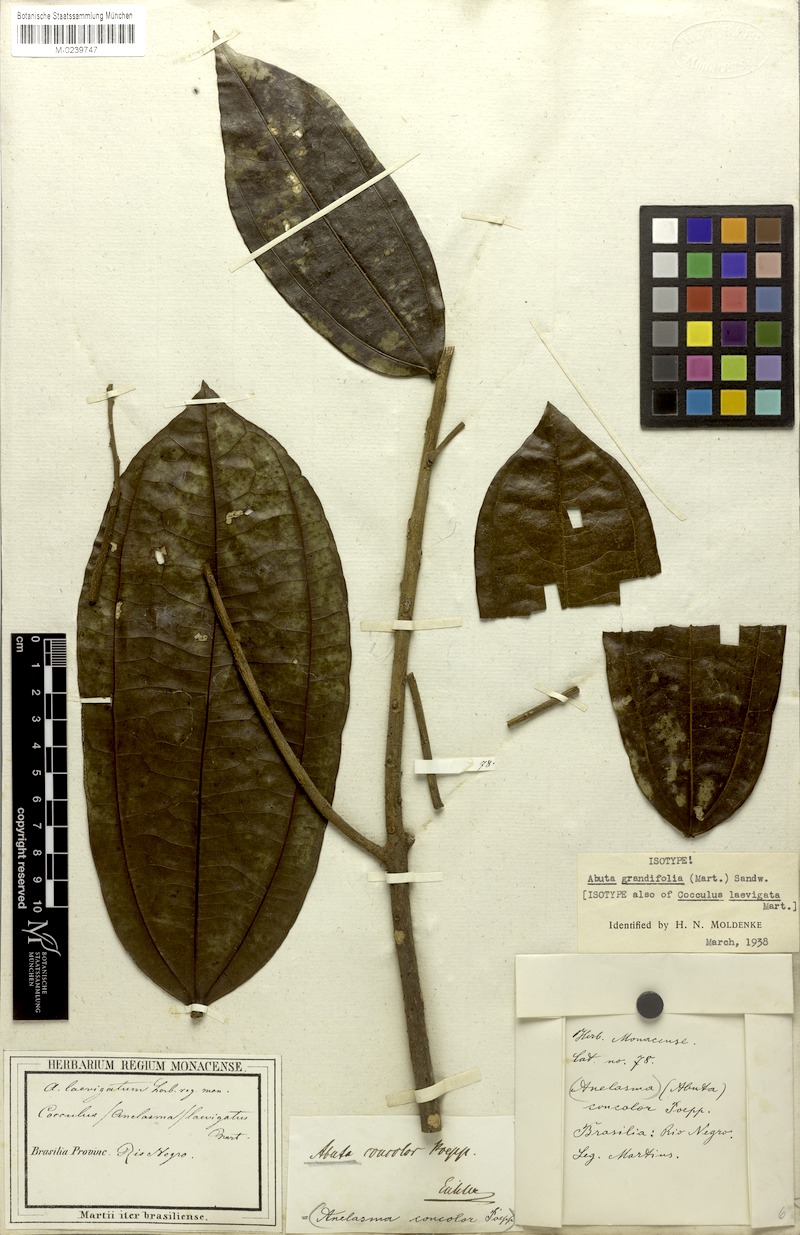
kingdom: Plantae
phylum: Tracheophyta
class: Magnoliopsida
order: Ranunculales
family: Menispermaceae
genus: Abuta
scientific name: Abuta grandifolia
